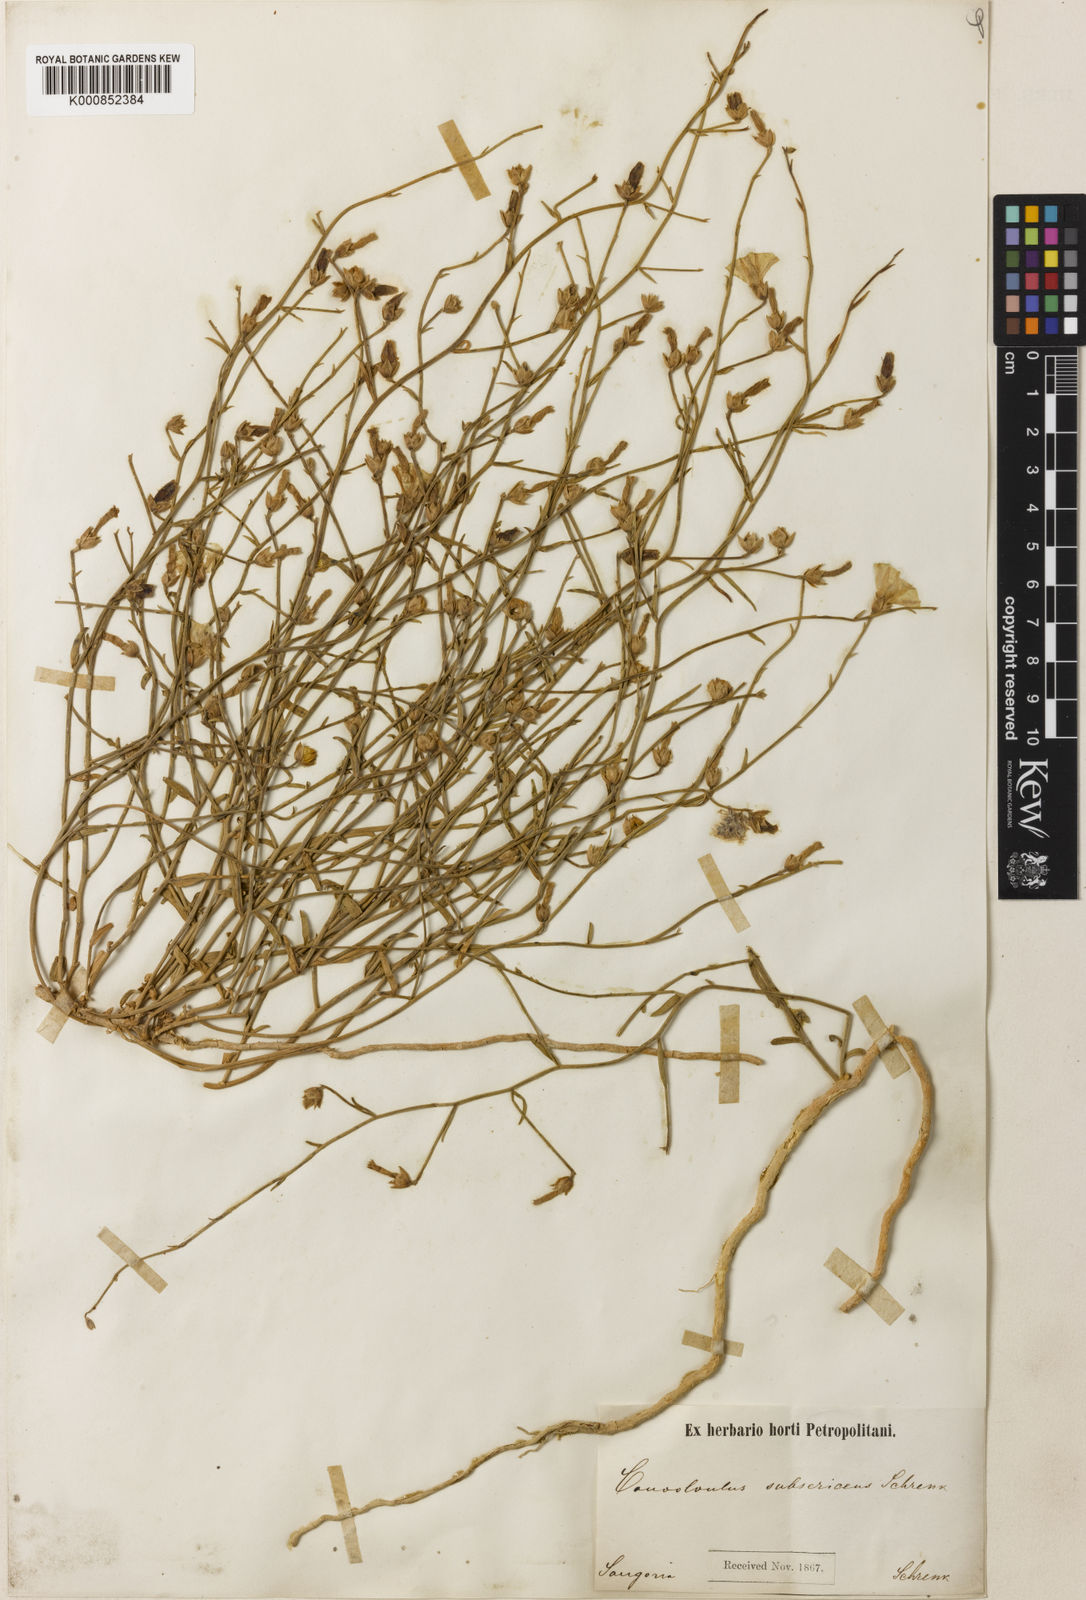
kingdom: Plantae
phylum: Tracheophyta
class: Magnoliopsida
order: Solanales
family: Convolvulaceae
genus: Convolvulus
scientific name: Convolvulus subsericeus
